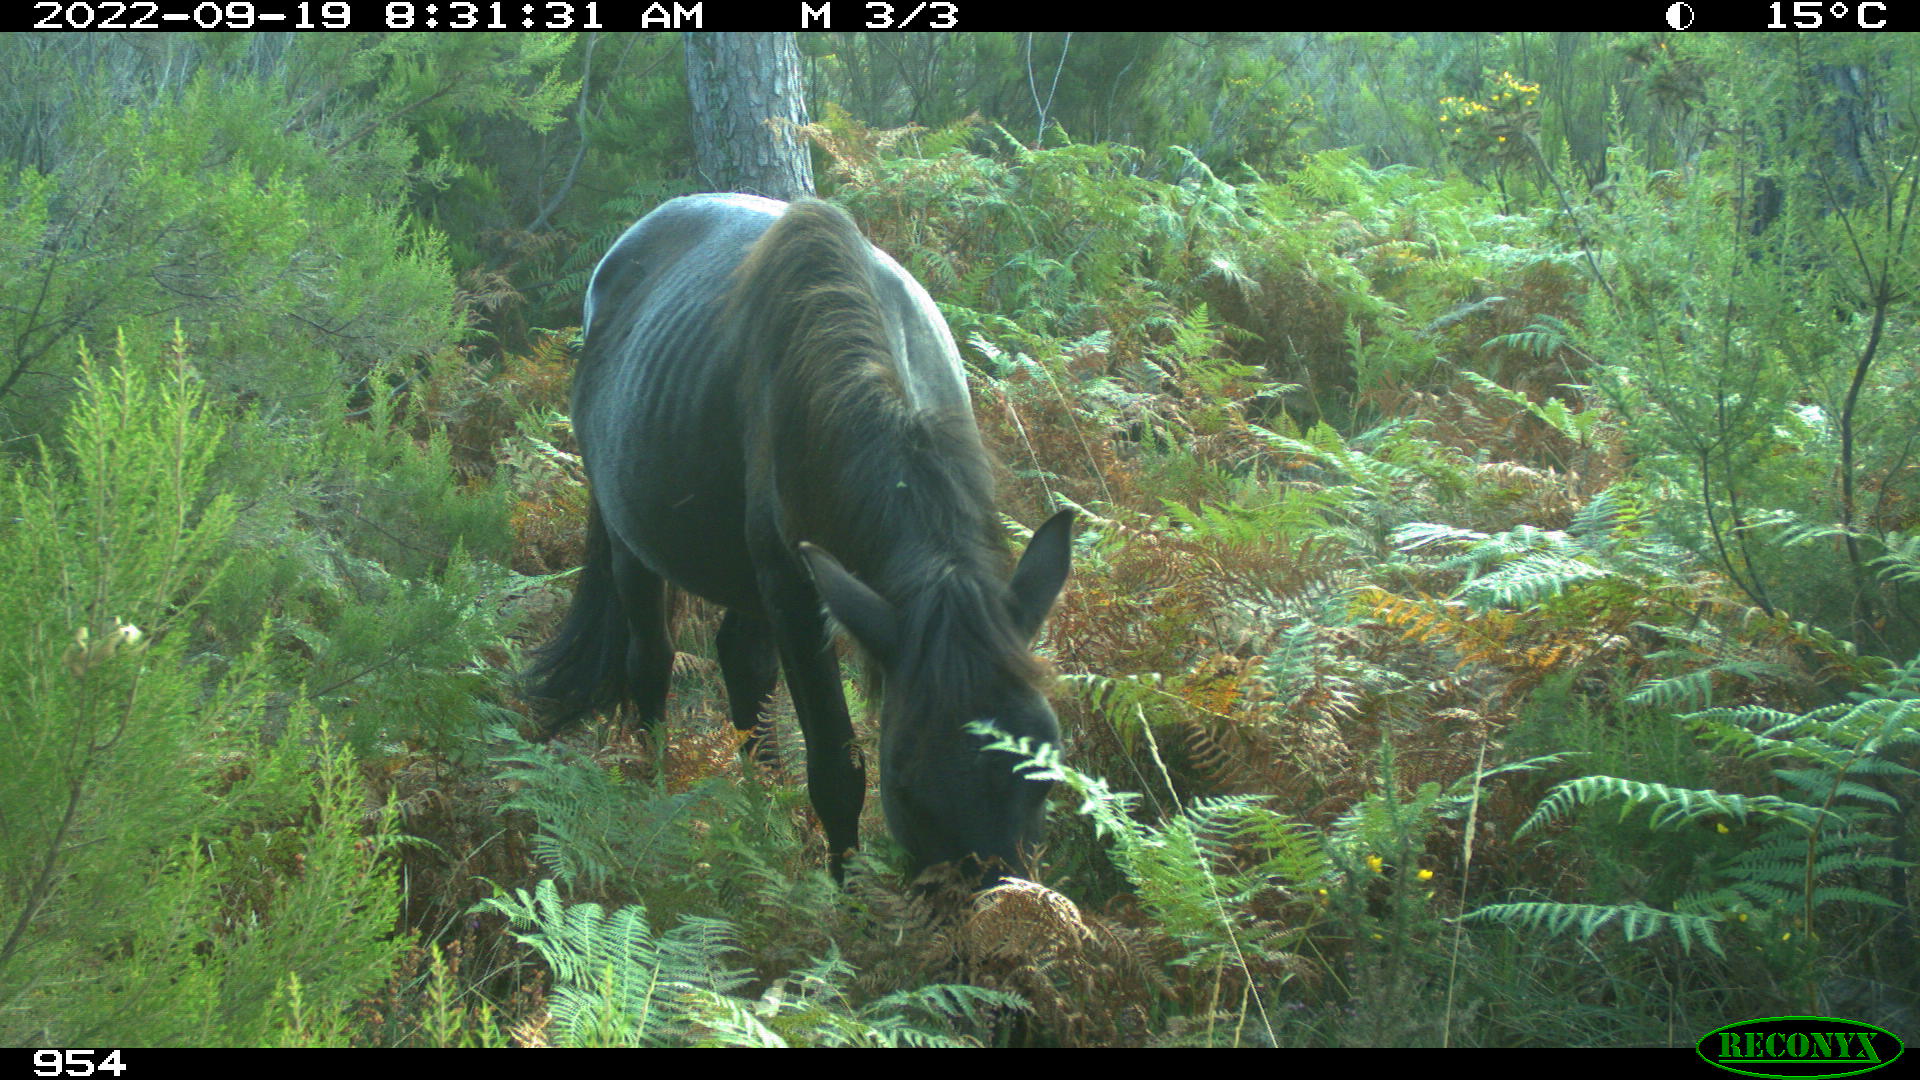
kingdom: Animalia
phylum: Chordata
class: Mammalia
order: Perissodactyla
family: Equidae
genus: Equus
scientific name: Equus caballus
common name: Horse
